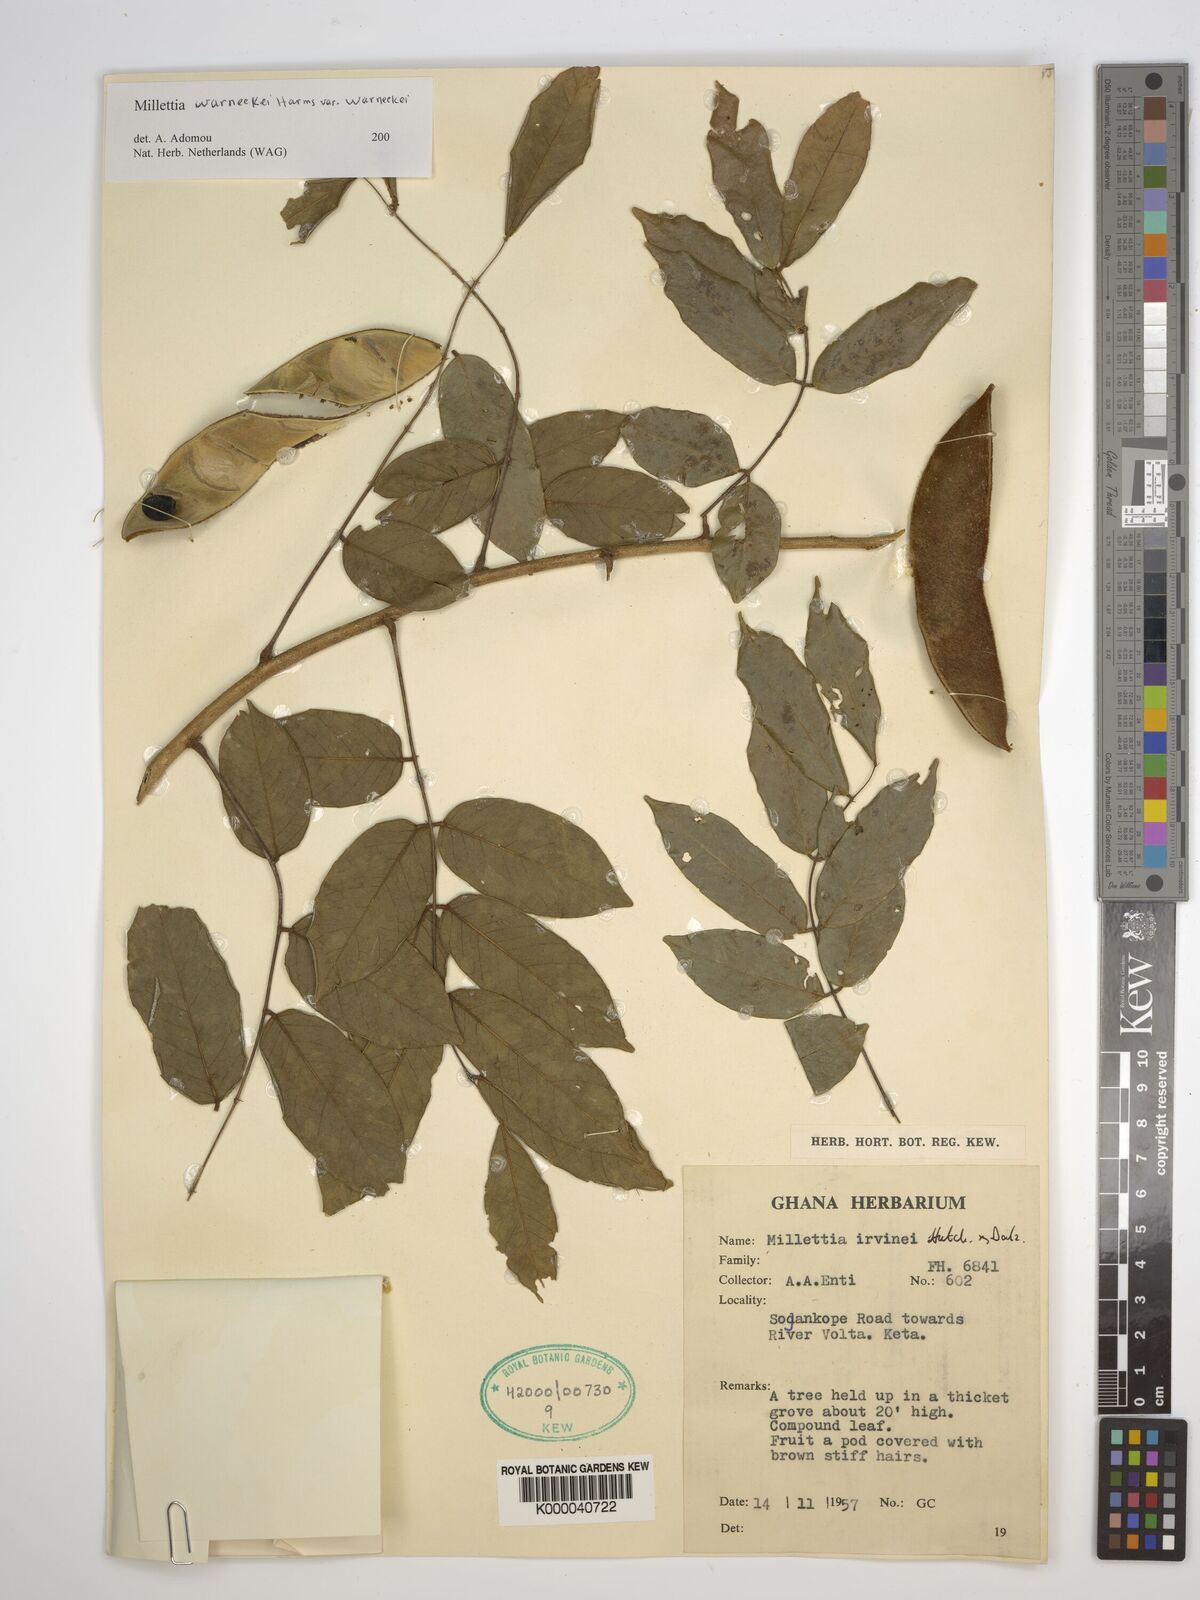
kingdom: Plantae
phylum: Tracheophyta
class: Magnoliopsida
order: Fabales
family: Fabaceae
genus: Millettia
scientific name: Millettia warneckei
